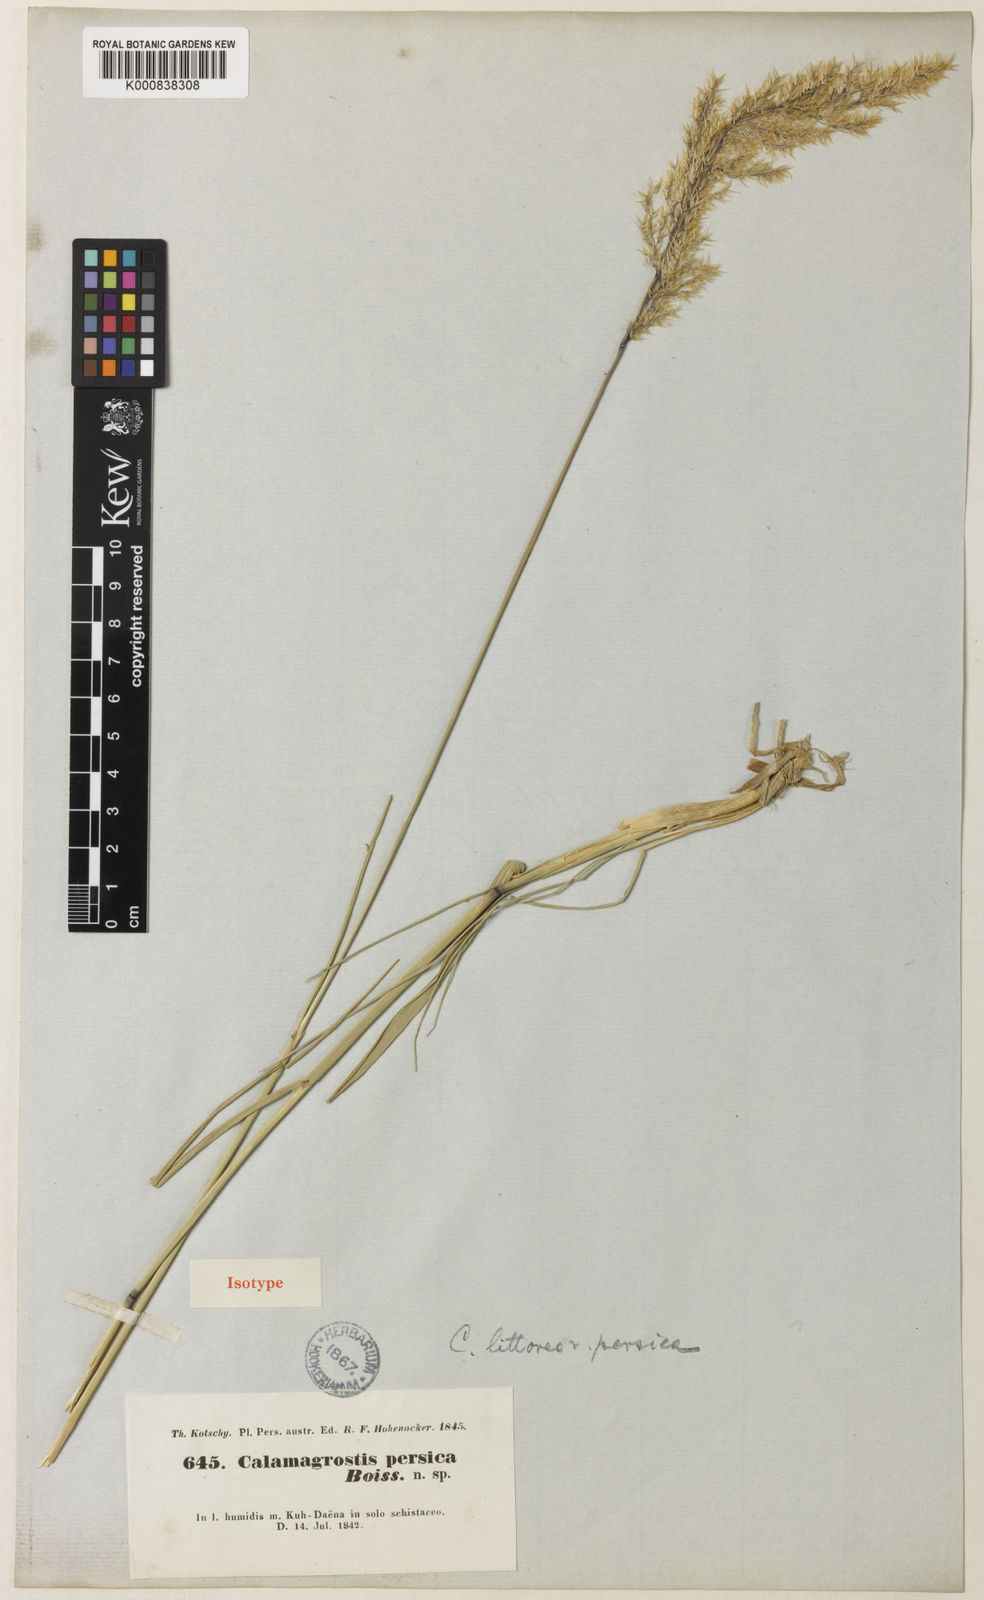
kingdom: Plantae
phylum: Tracheophyta
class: Liliopsida
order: Poales
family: Poaceae
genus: Calamagrostis
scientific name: Calamagrostis pseudophragmites
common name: Coastal small-reed
